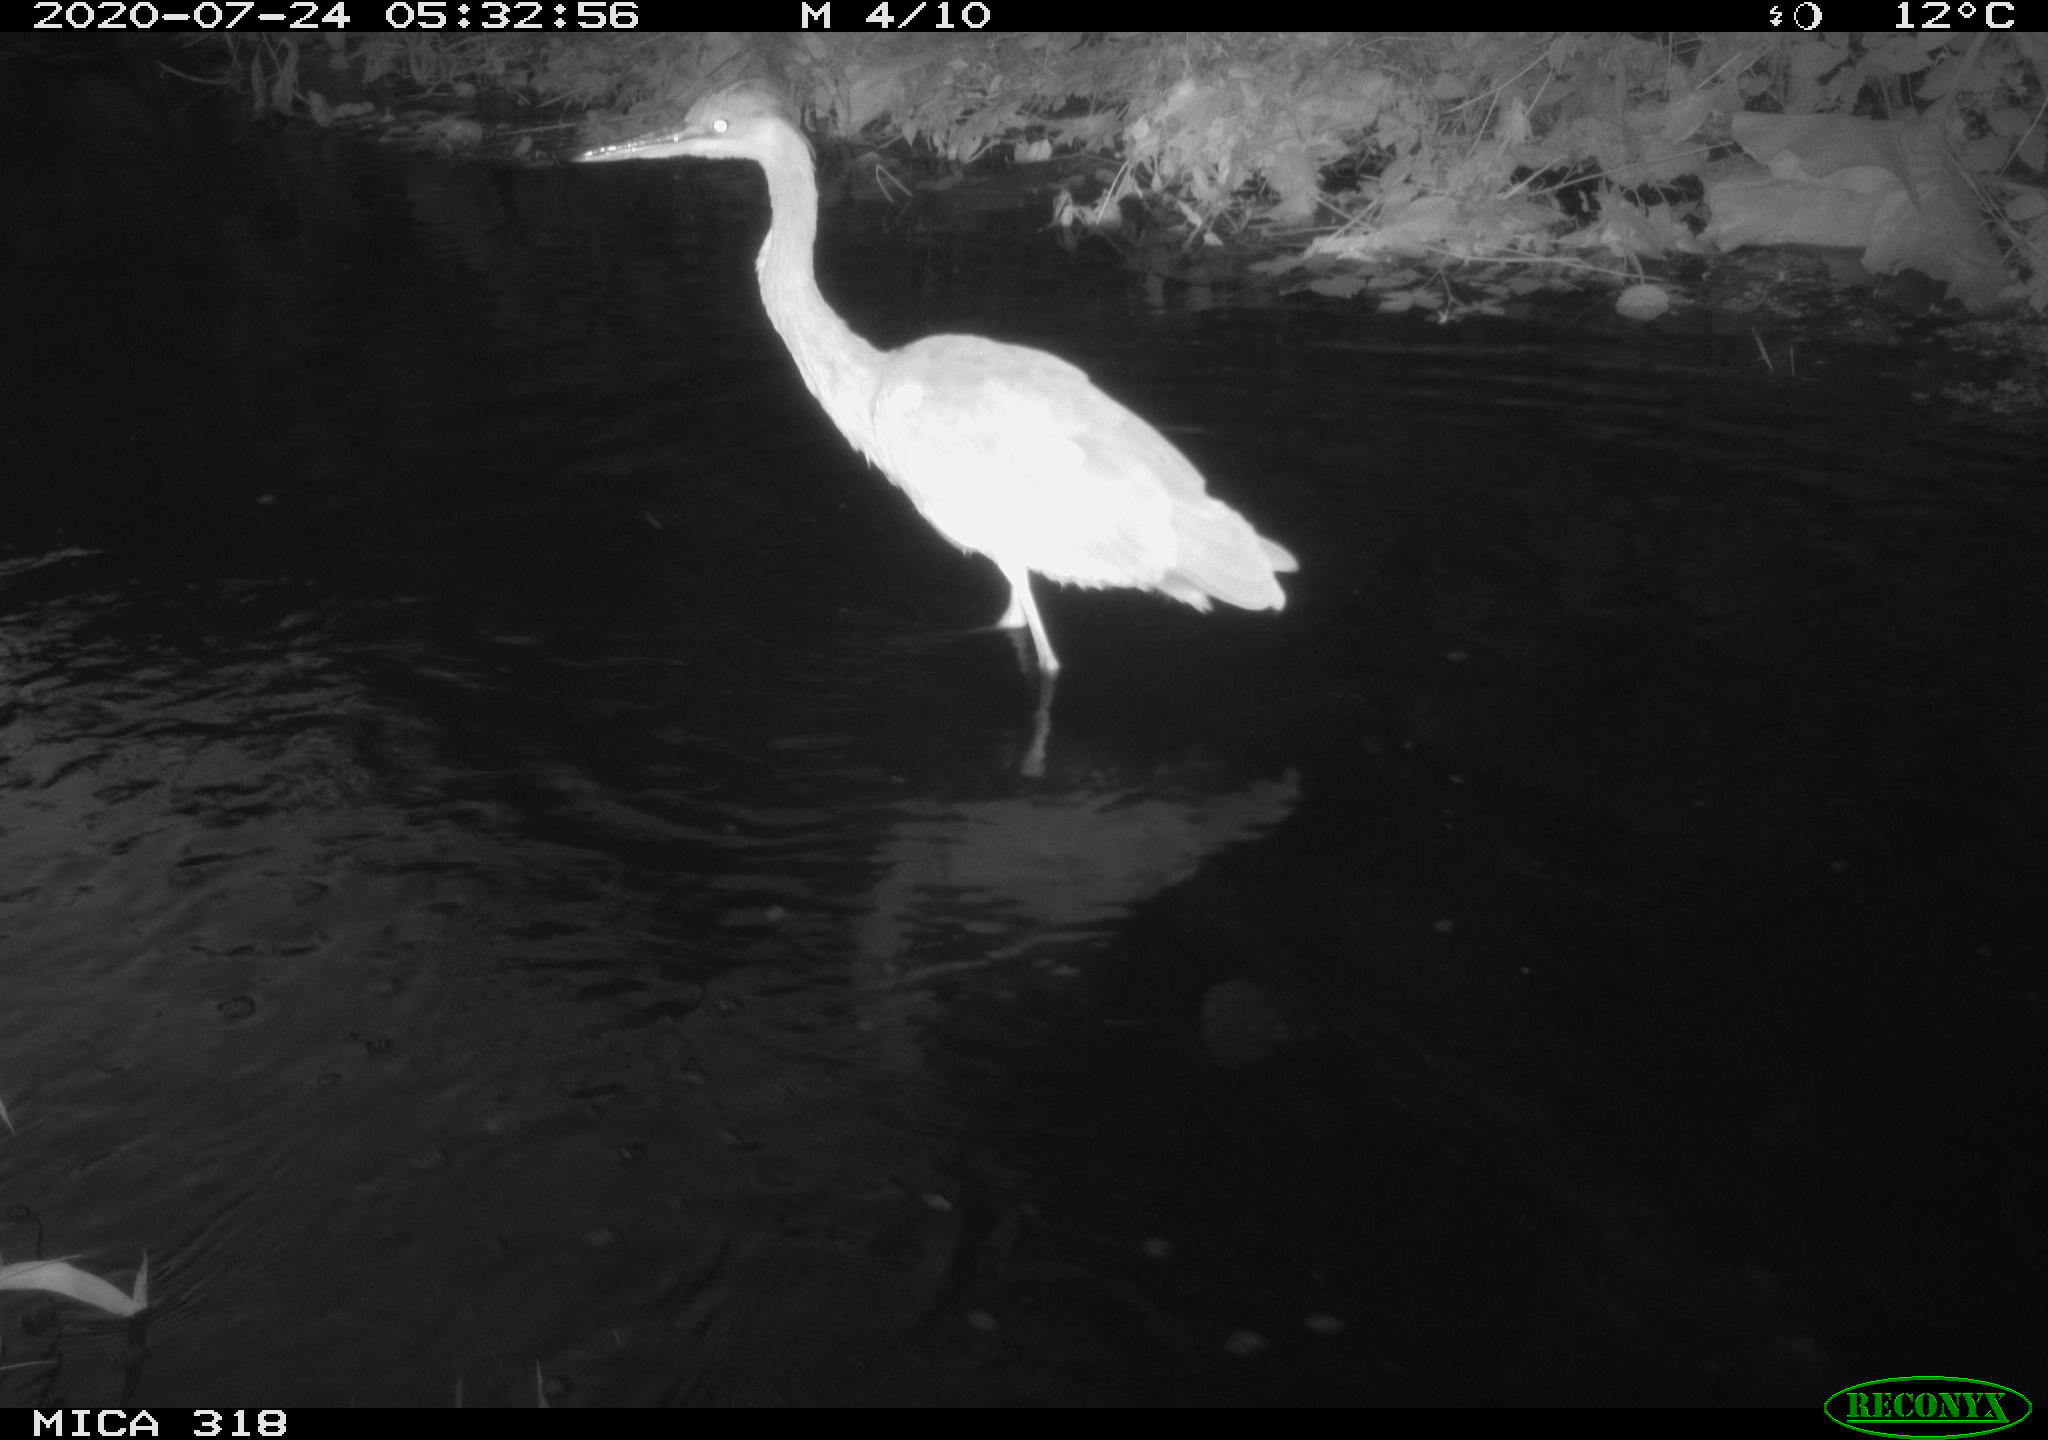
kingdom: Animalia
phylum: Chordata
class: Aves
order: Pelecaniformes
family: Ardeidae
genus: Ardea
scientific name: Ardea cinerea
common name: Grey heron
